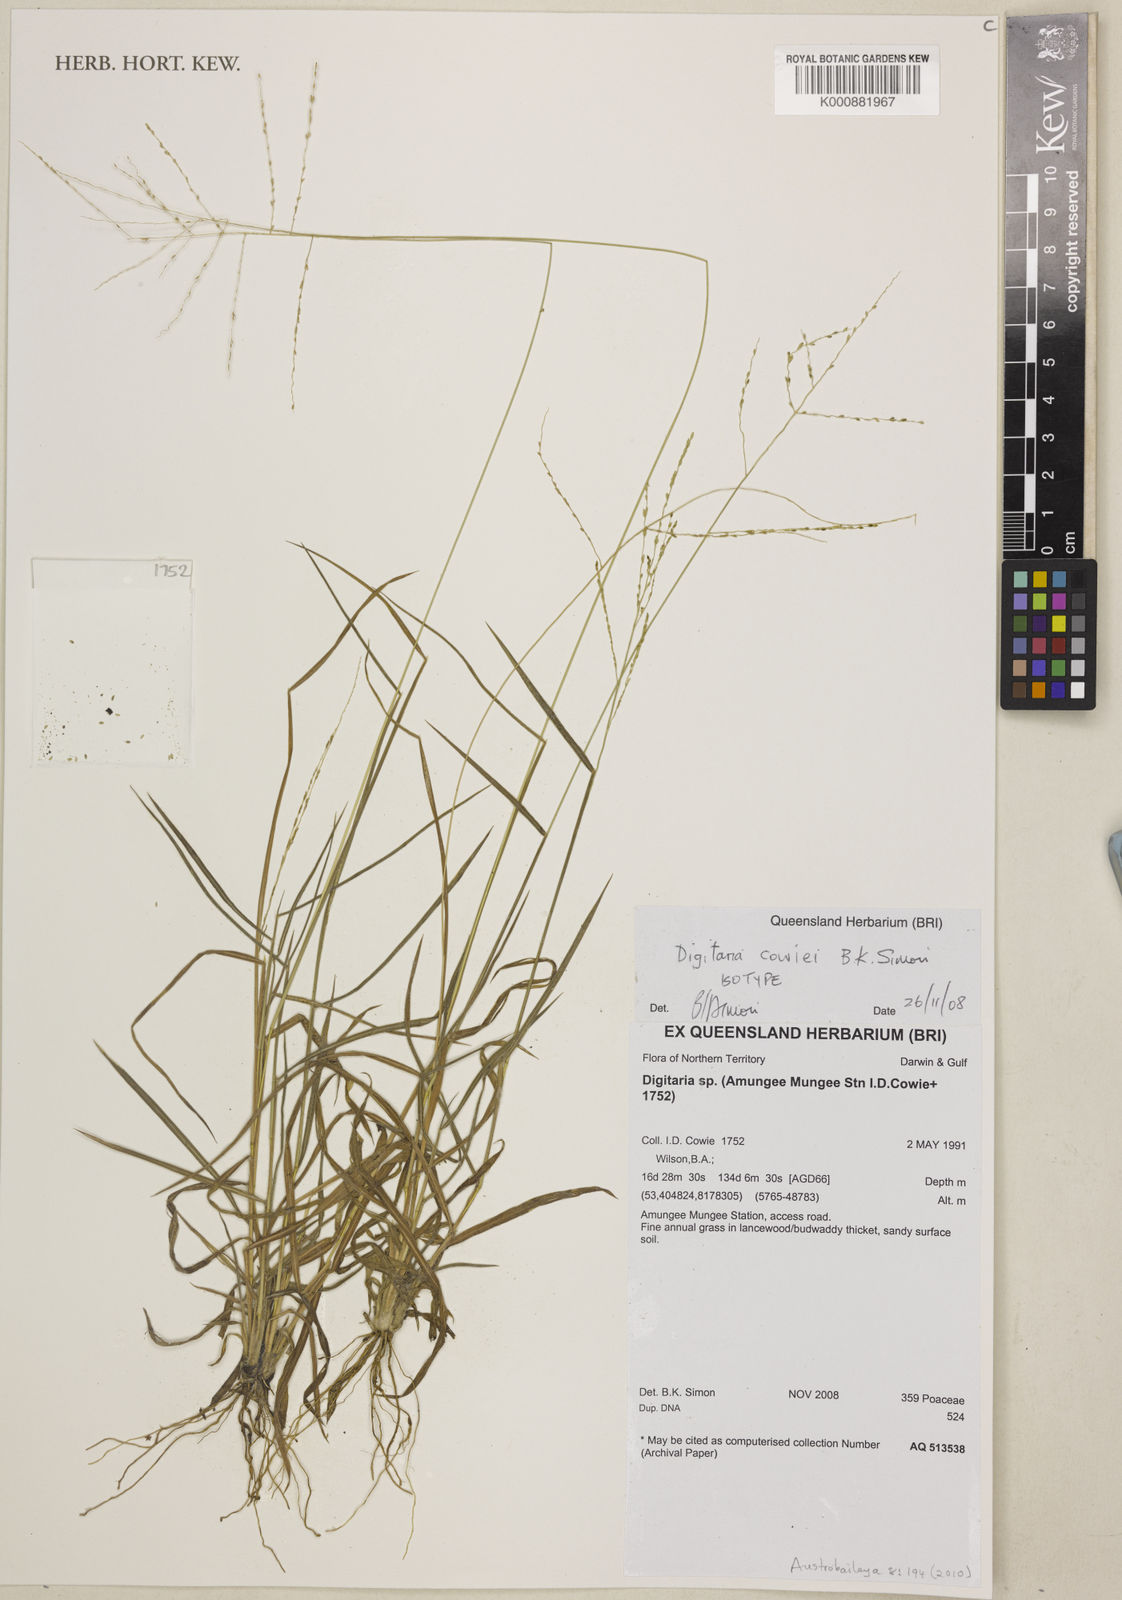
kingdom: Plantae
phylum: Tracheophyta
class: Liliopsida
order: Poales
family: Poaceae
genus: Digitaria
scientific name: Digitaria cowiei
